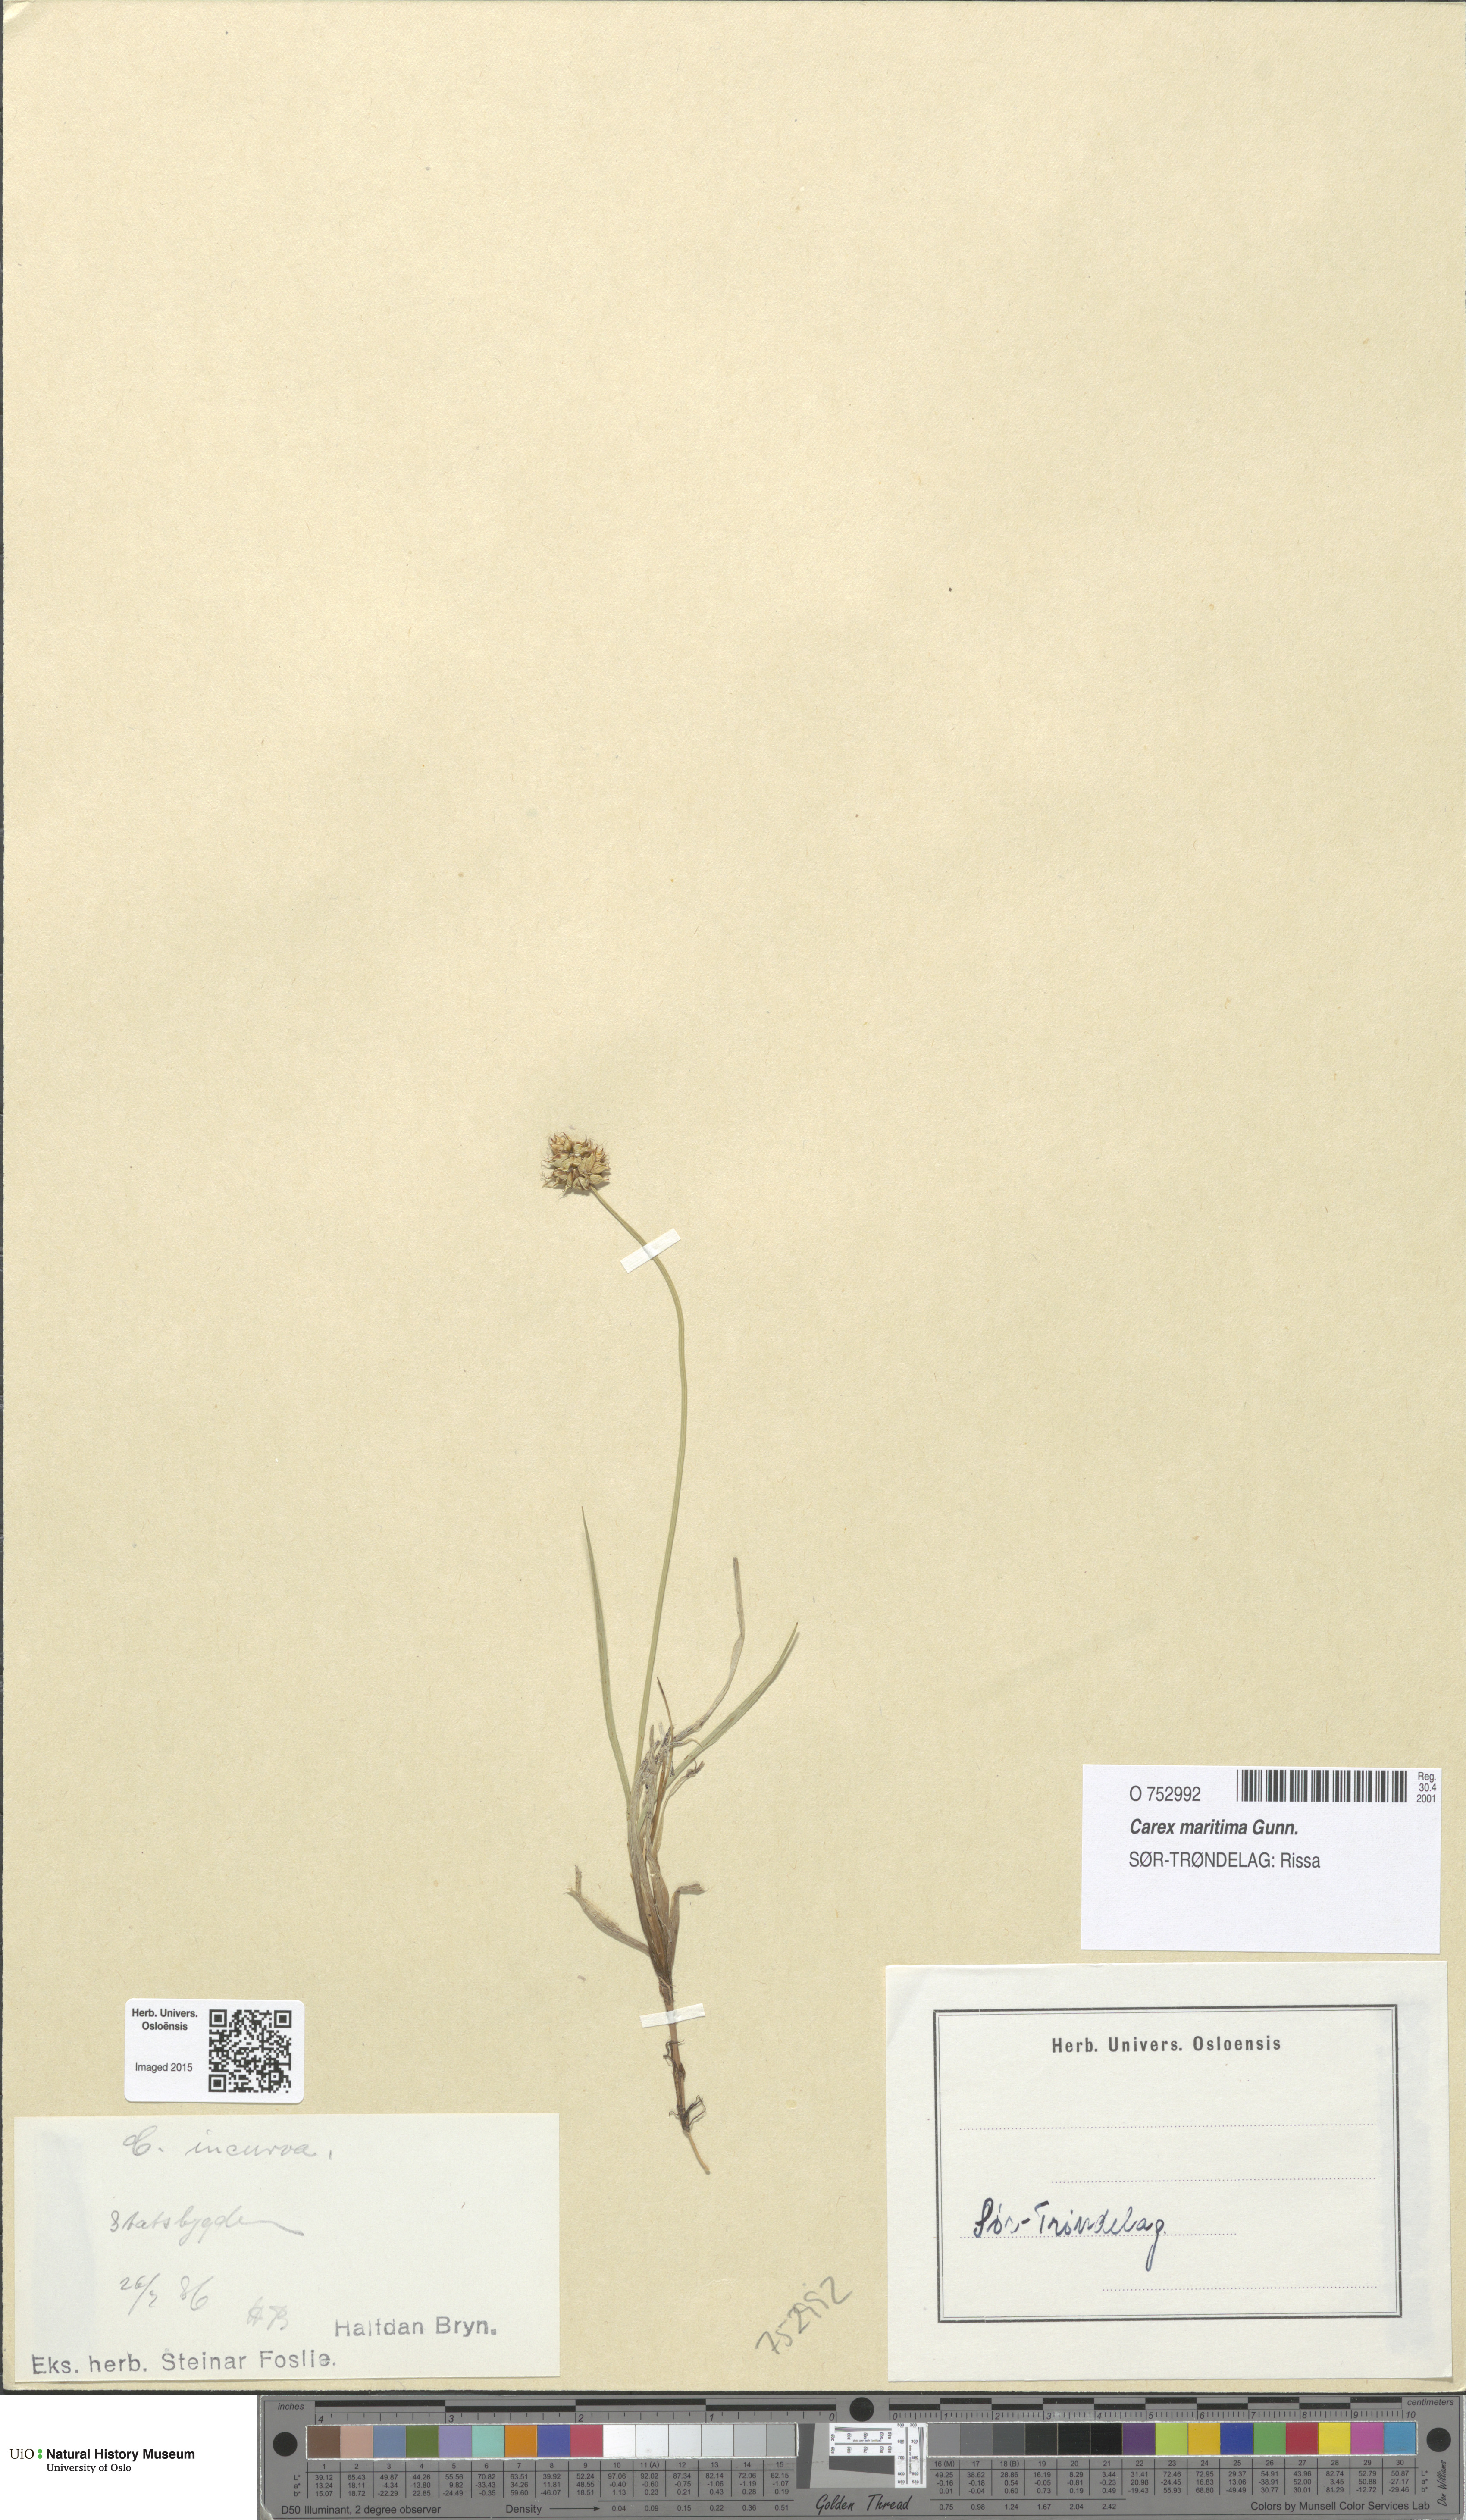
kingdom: Plantae
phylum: Tracheophyta
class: Liliopsida
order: Poales
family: Cyperaceae
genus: Carex
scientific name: Carex maritima
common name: Curved sedge
